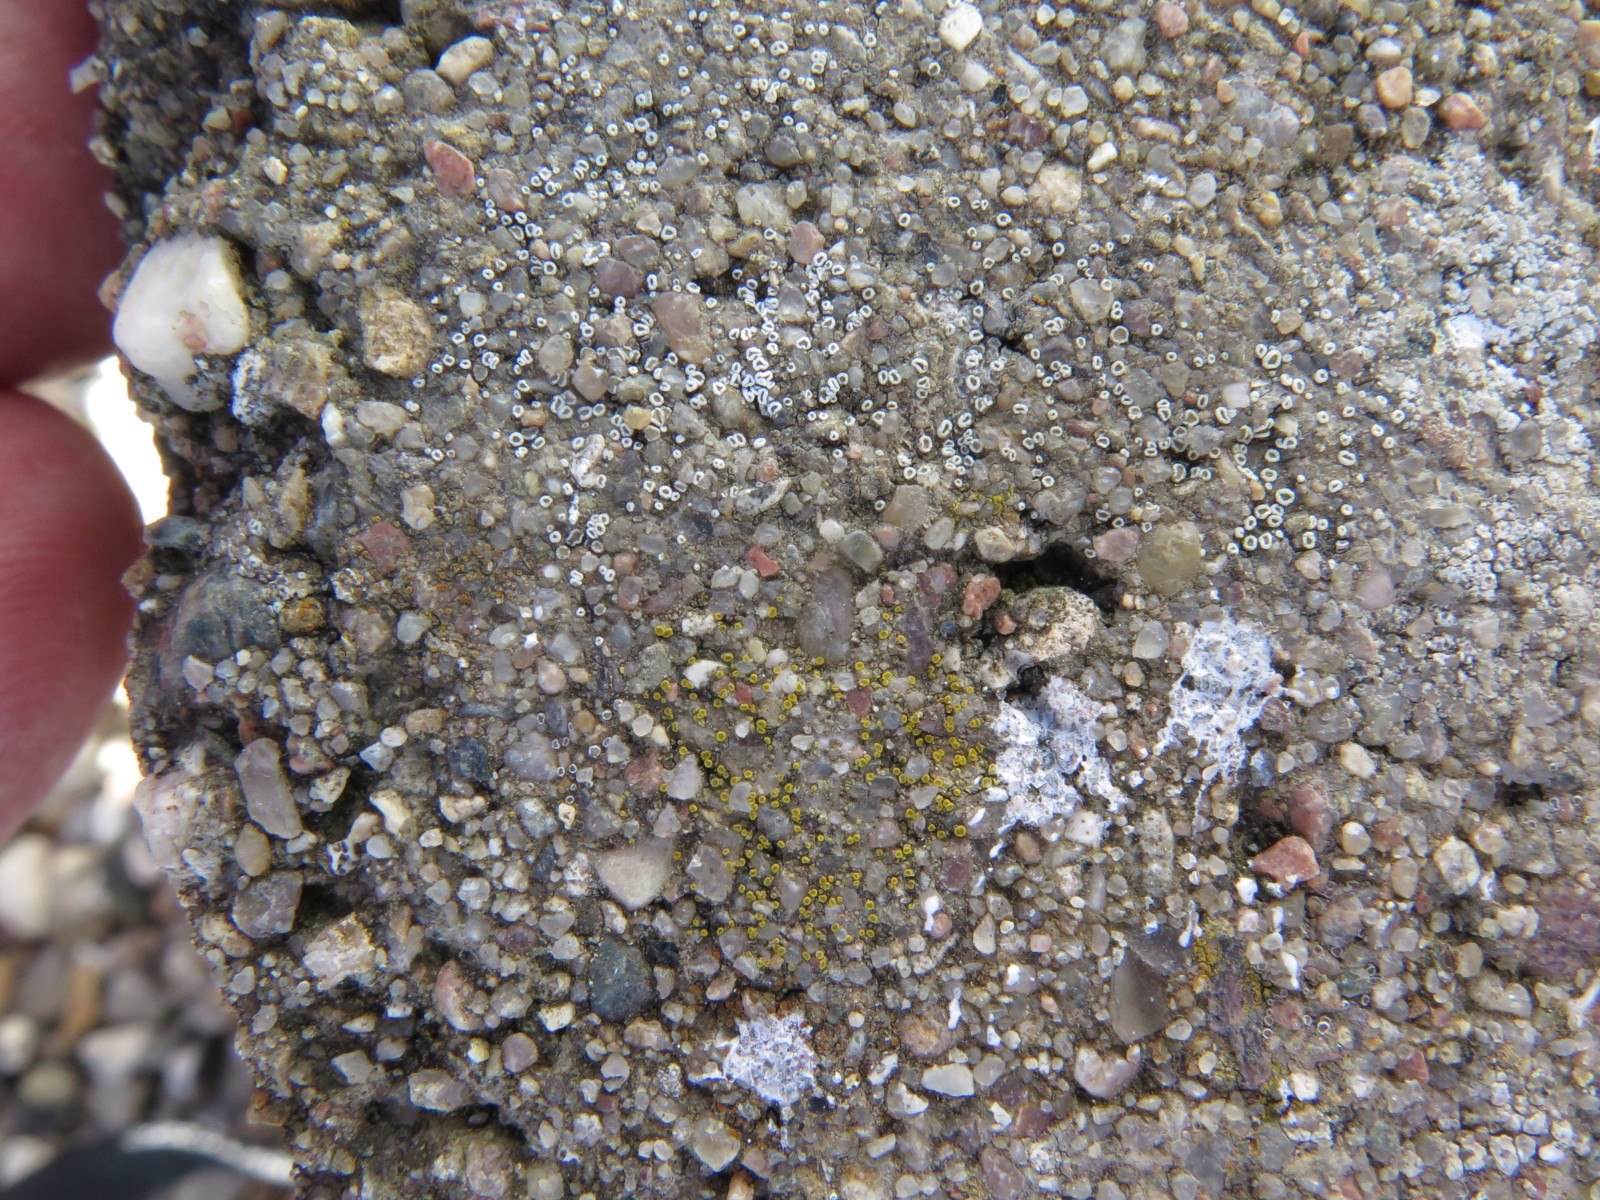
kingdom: Fungi
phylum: Ascomycota
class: Lecanoromycetes
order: Lecanorales
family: Lecanoraceae
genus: Polyozosia
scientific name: Polyozosia dispersa
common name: spredt kantskivelav
